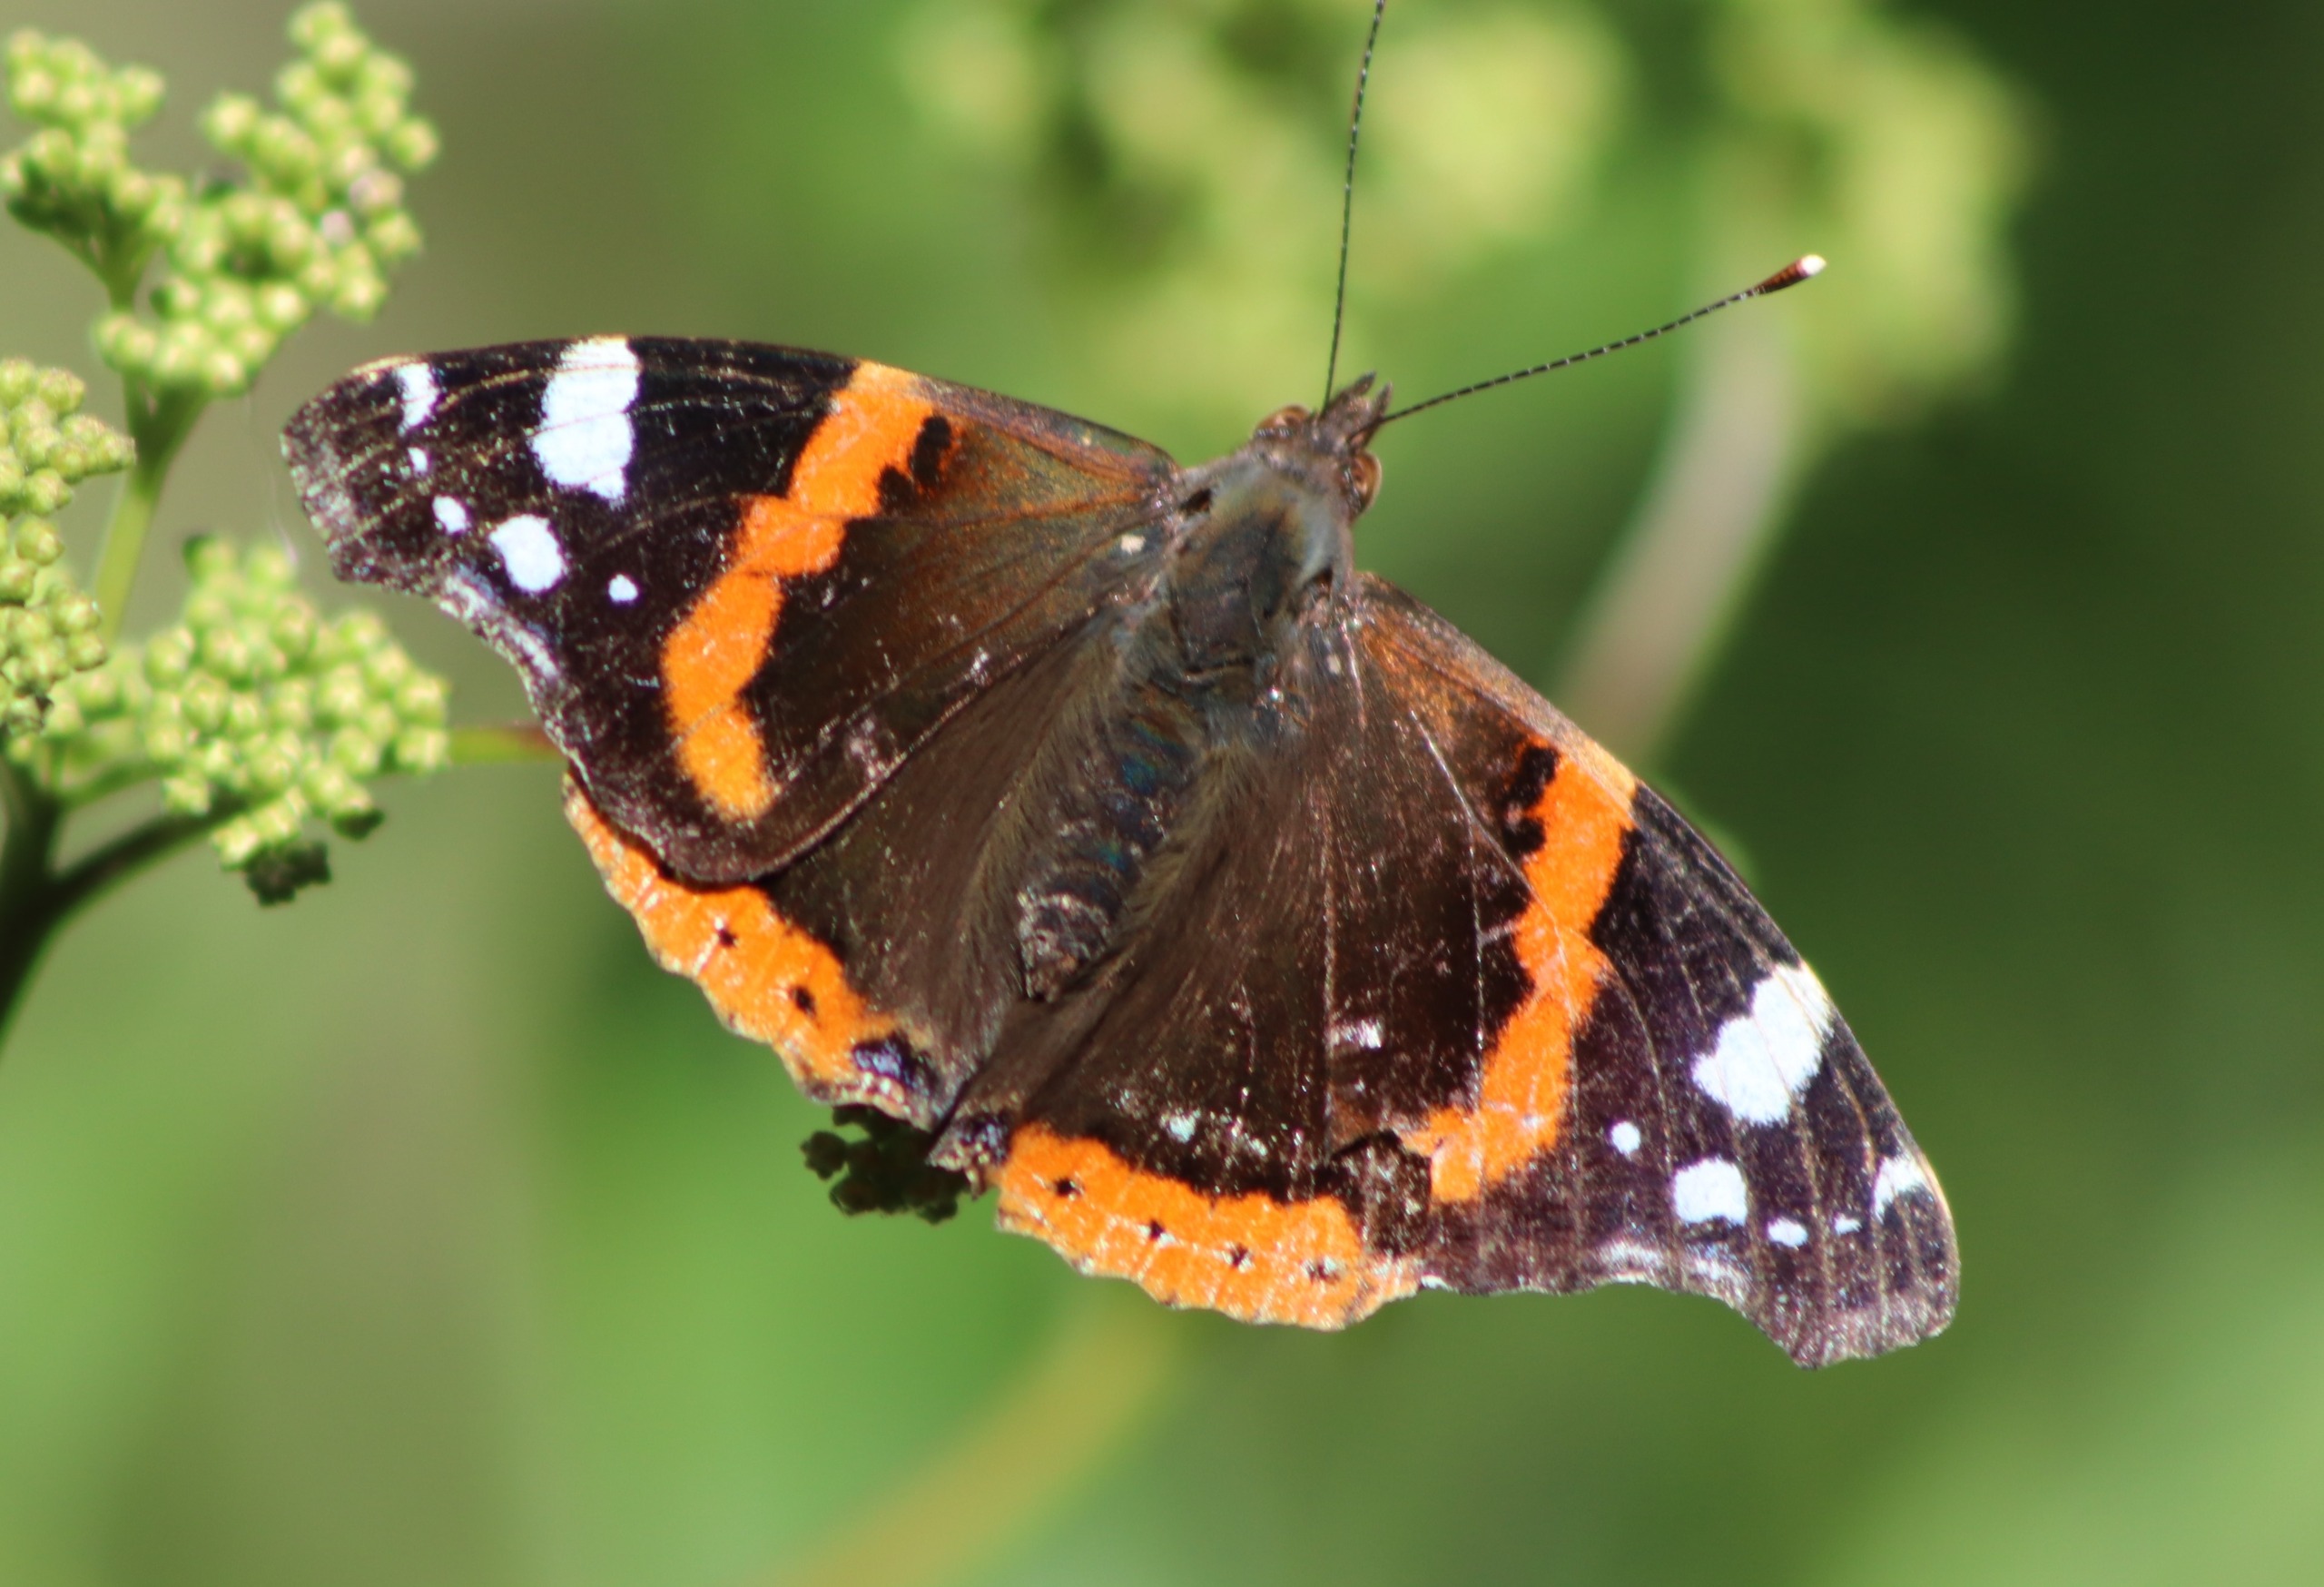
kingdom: Animalia
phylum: Arthropoda
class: Insecta
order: Lepidoptera
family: Nymphalidae
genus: Vanessa
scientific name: Vanessa atalanta
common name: Admiral
